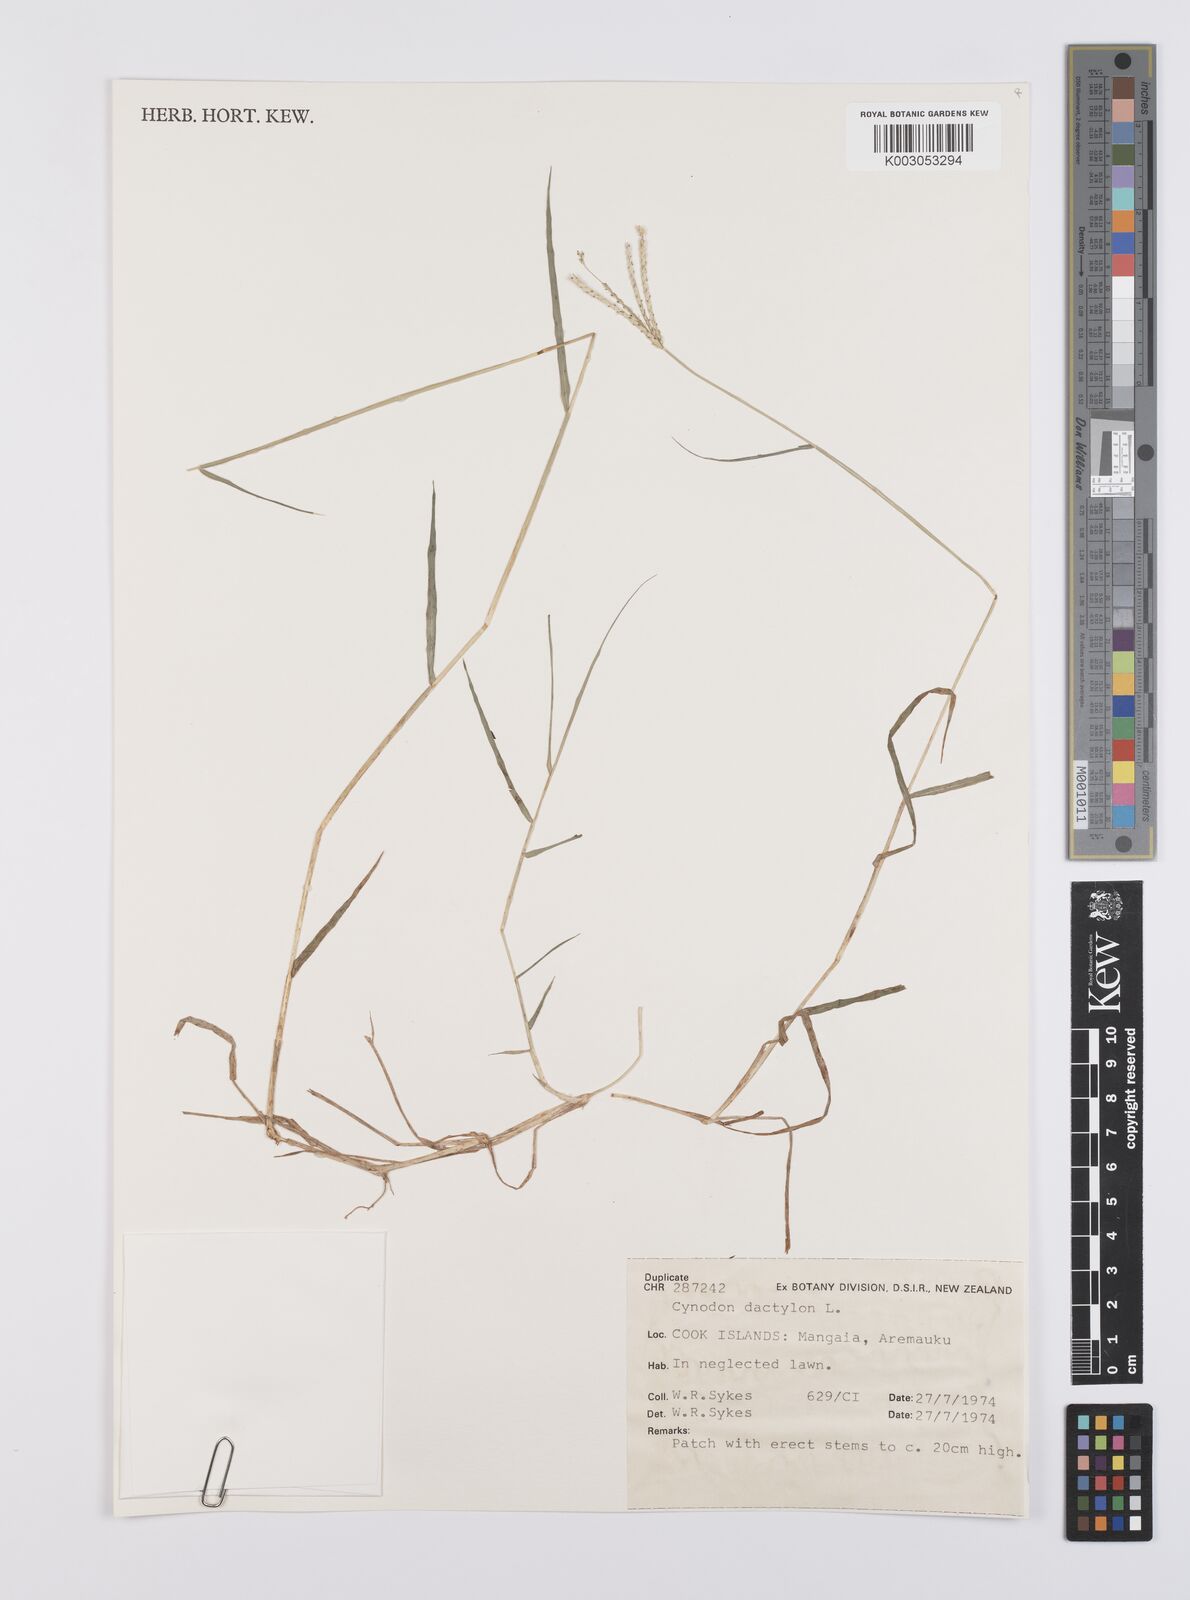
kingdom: Plantae
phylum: Tracheophyta
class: Liliopsida
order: Poales
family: Poaceae
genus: Cynodon
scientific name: Cynodon dactylon
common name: Bermuda grass
